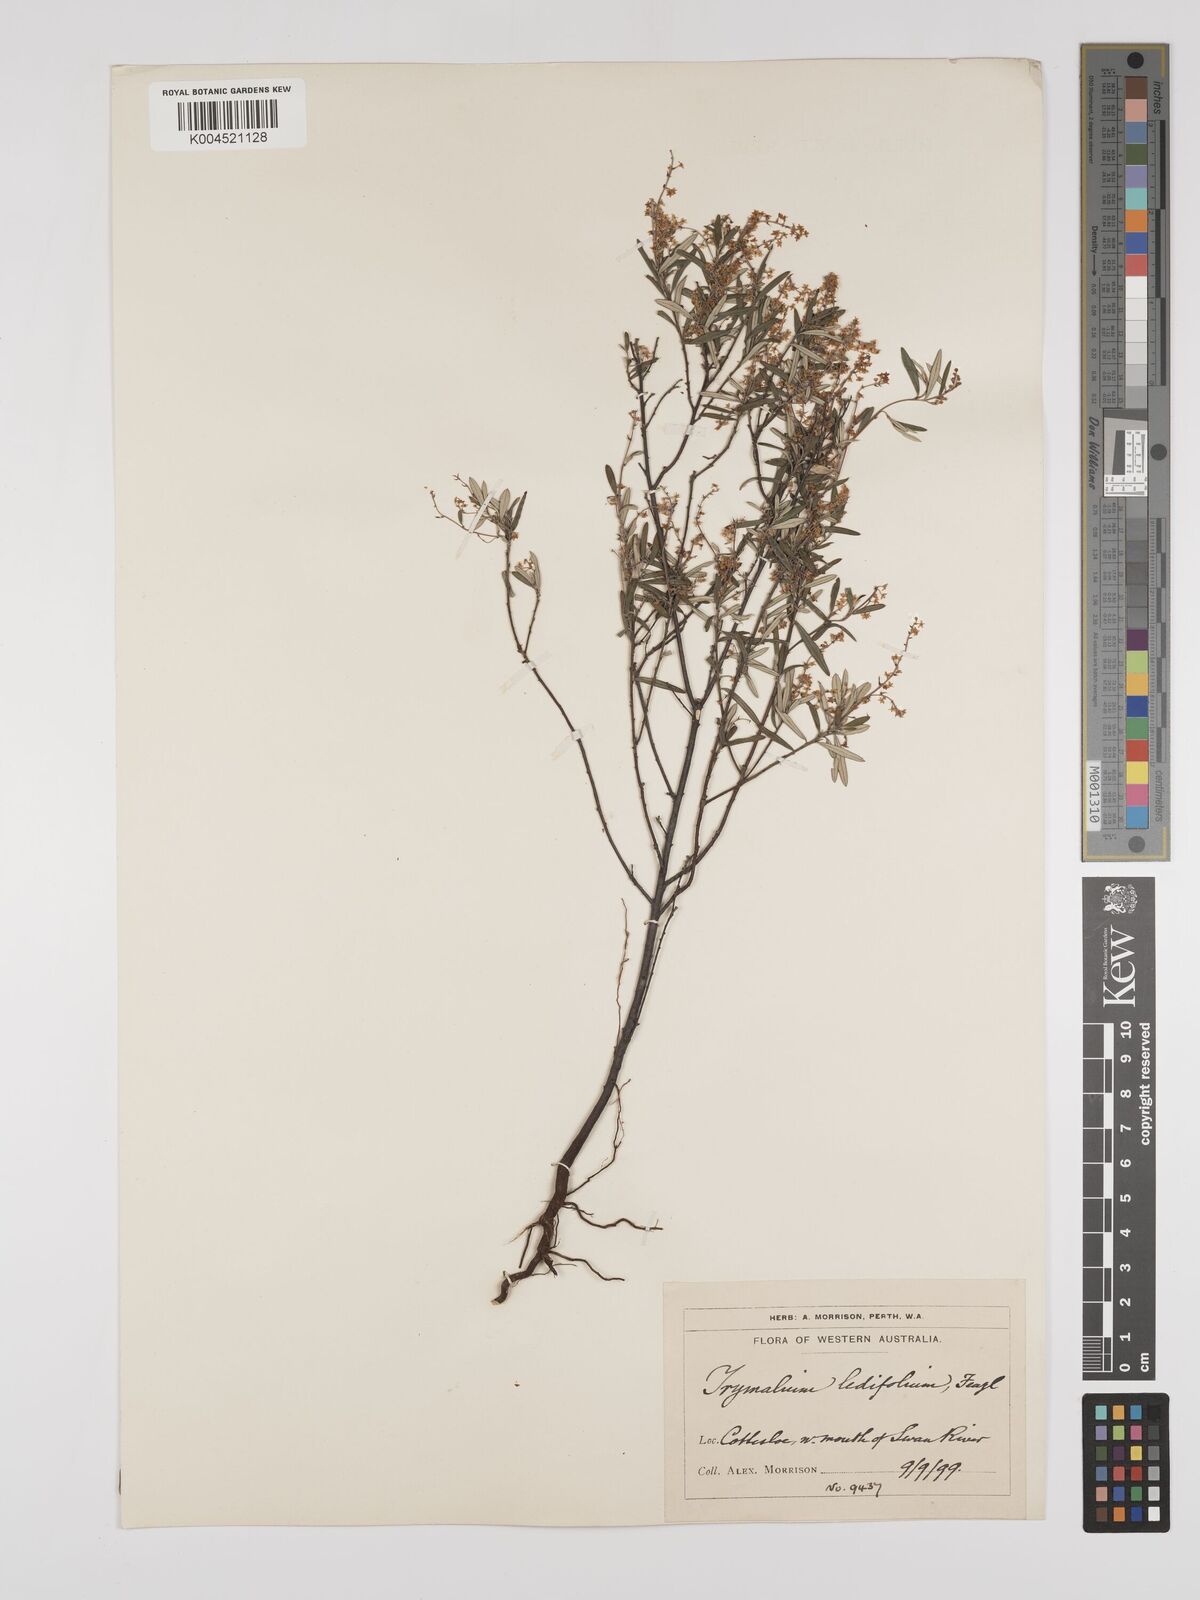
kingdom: Plantae
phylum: Tracheophyta
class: Magnoliopsida
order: Rosales
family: Rhamnaceae
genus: Trymalium
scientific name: Trymalium ledifolium
